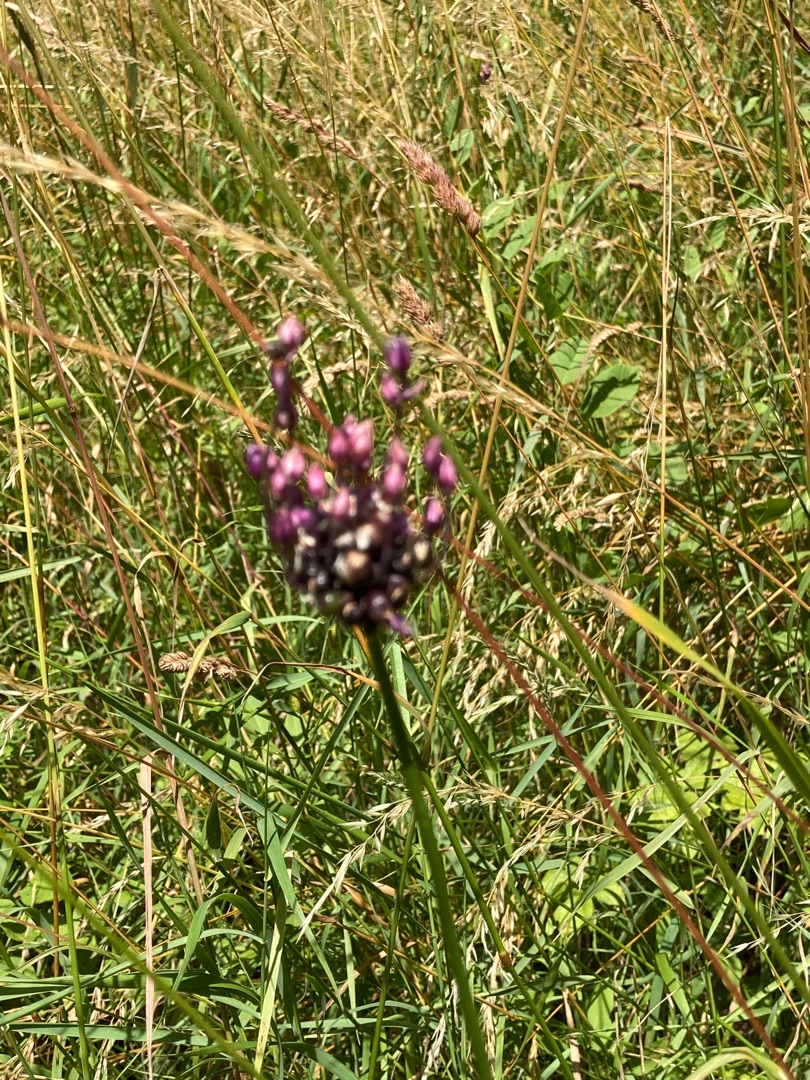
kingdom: Plantae
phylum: Tracheophyta
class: Liliopsida
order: Asparagales
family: Amaryllidaceae
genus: Allium
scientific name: Allium scorodoprasum
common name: Skov-løg
